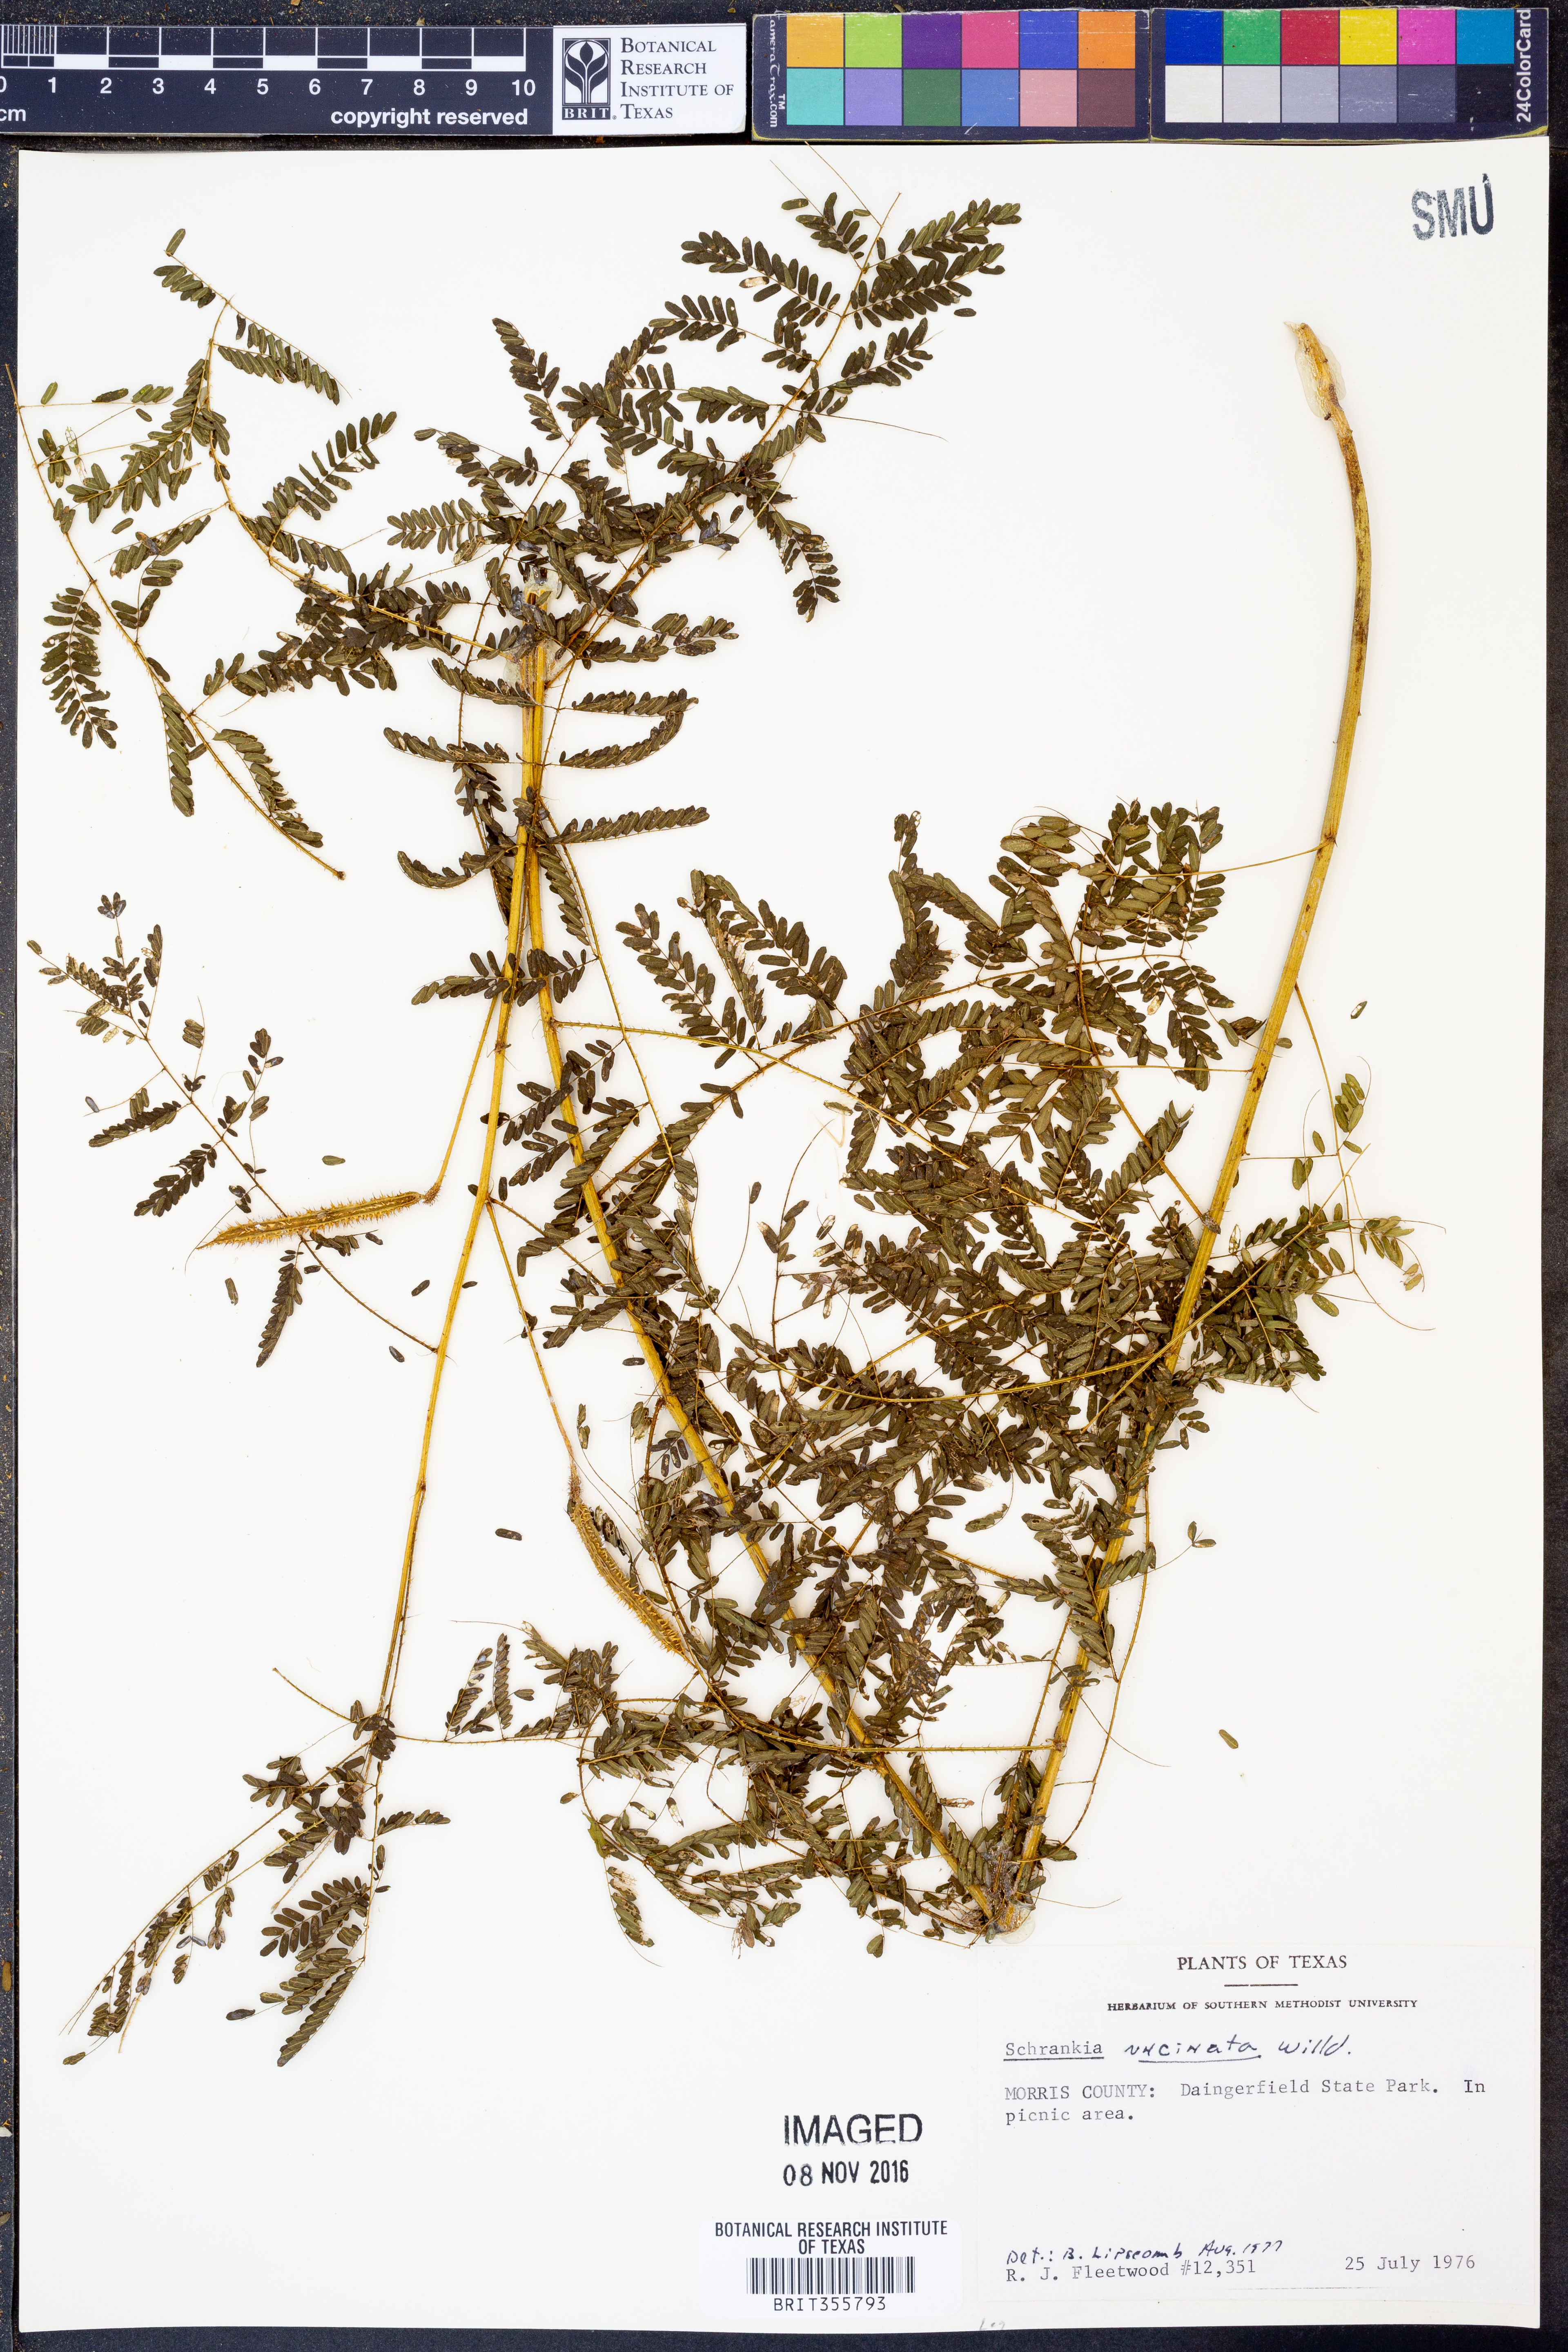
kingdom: Plantae
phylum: Tracheophyta
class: Magnoliopsida
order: Fabales
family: Fabaceae
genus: Mimosa
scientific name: Mimosa quadrivalvis
